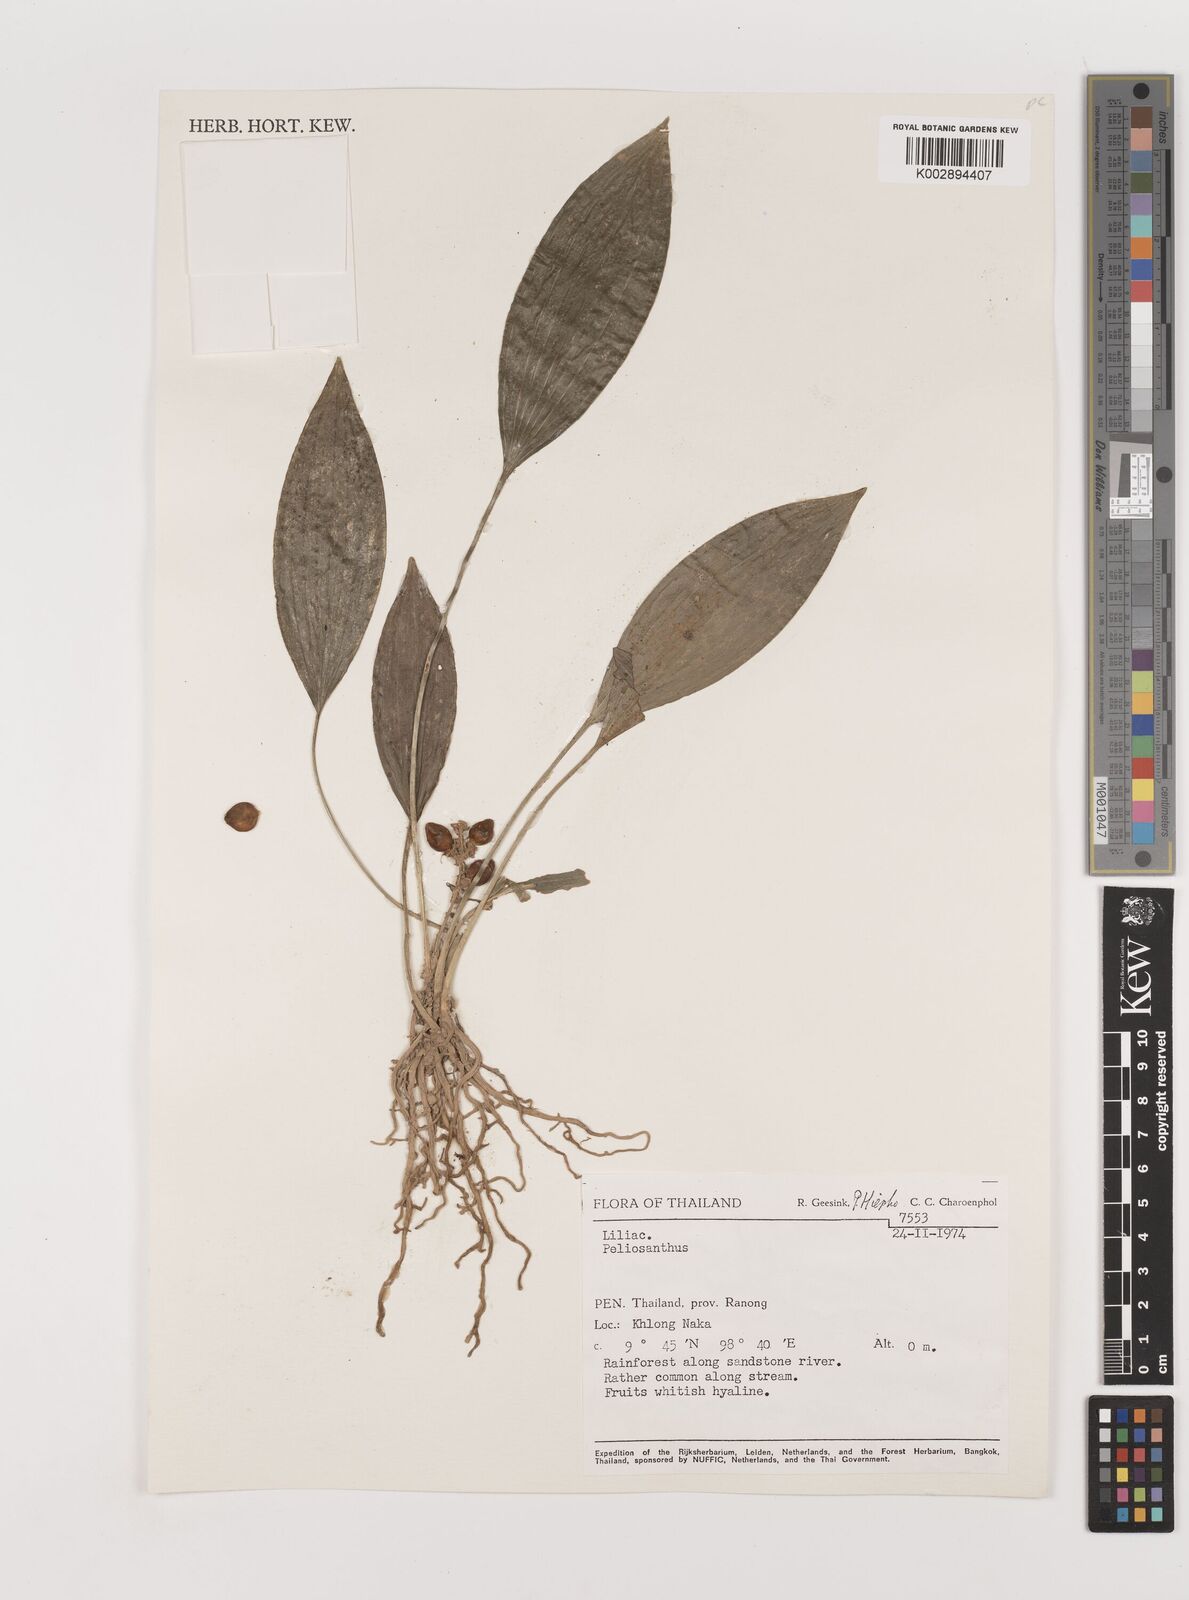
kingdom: Plantae
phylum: Tracheophyta
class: Liliopsida
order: Asparagales
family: Asparagaceae
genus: Peliosanthes
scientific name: Peliosanthes
